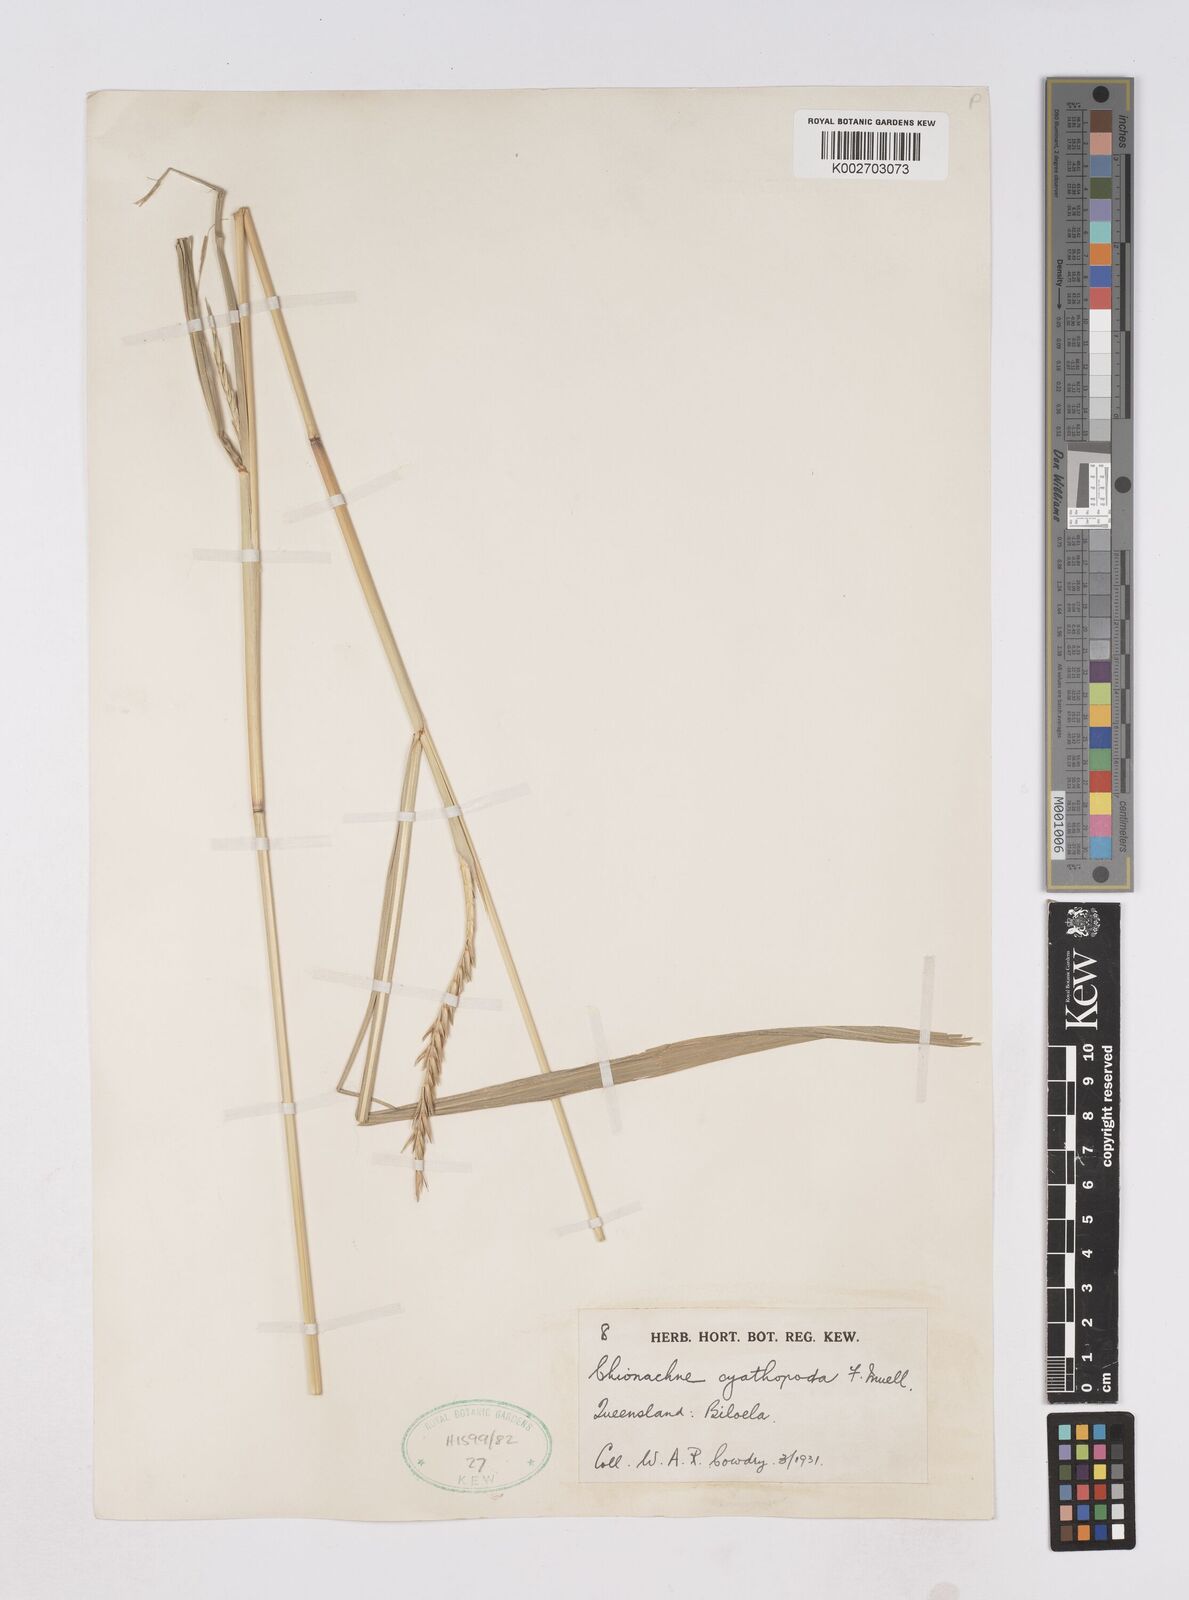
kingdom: Plantae
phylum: Tracheophyta
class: Liliopsida
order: Poales
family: Poaceae
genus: Polytoca
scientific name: Polytoca cyathopoda
